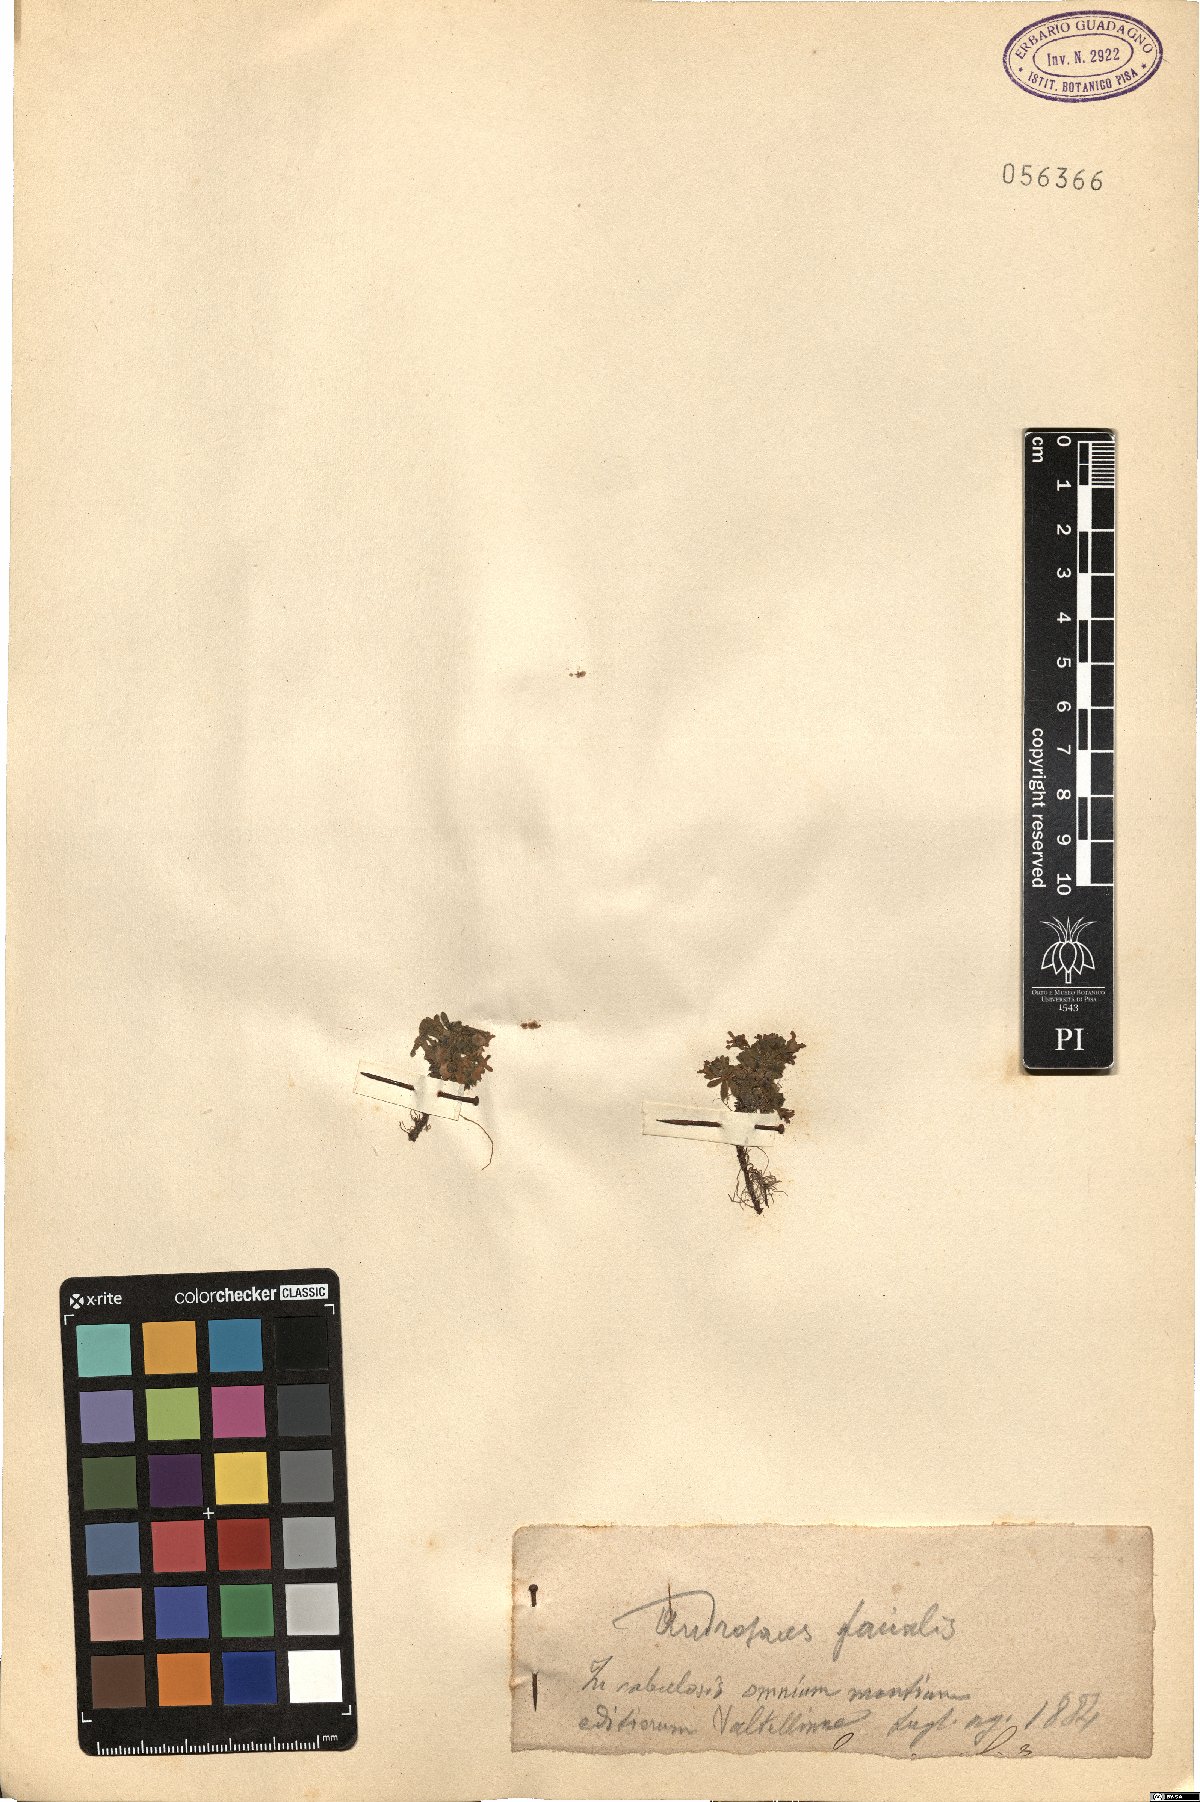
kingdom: Plantae
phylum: Tracheophyta
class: Magnoliopsida
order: Ericales
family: Primulaceae
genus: Androsace
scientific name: Androsace alpina
